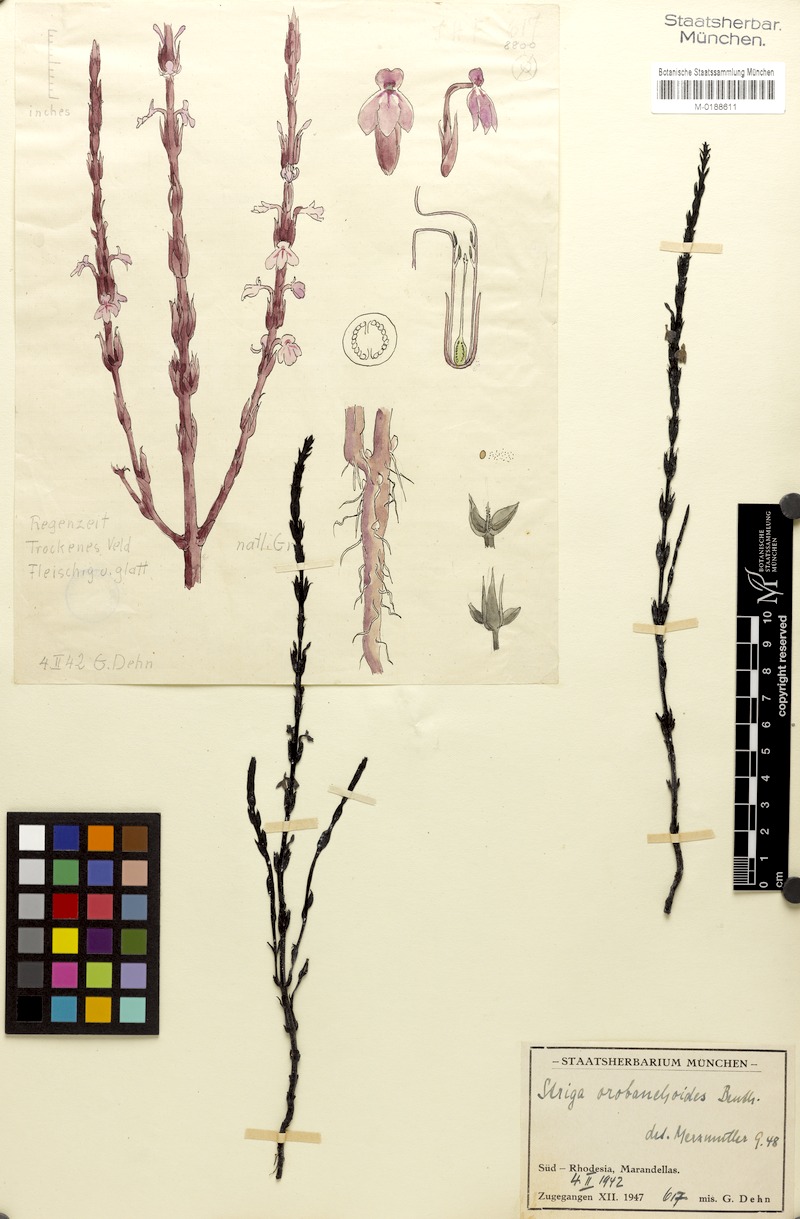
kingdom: Plantae
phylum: Tracheophyta
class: Magnoliopsida
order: Lamiales
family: Orobanchaceae
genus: Striga
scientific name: Striga gesnerioides
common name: Cowpea witchweed
